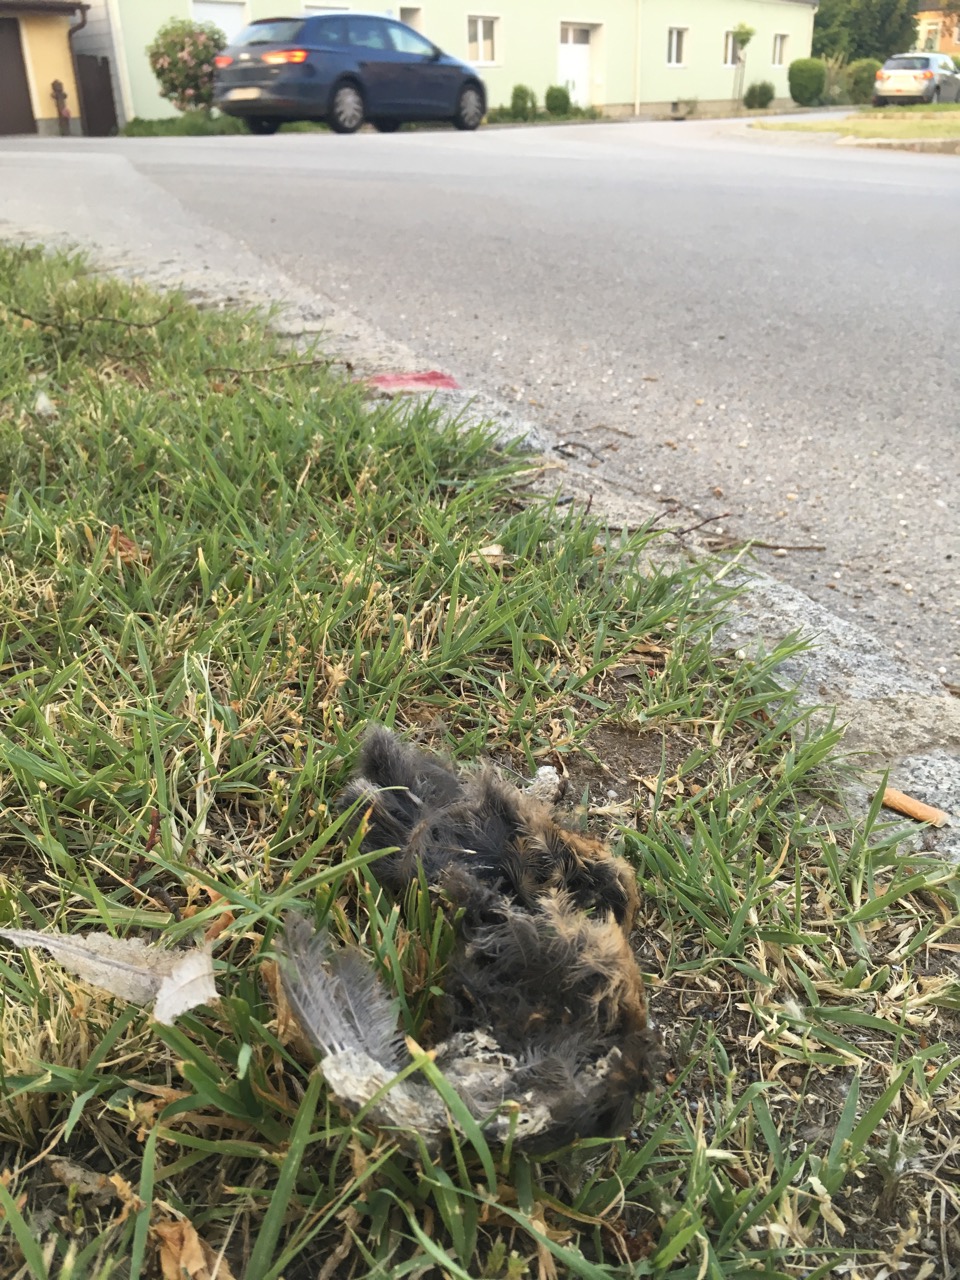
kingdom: Animalia
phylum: Chordata
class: Aves
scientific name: Aves
